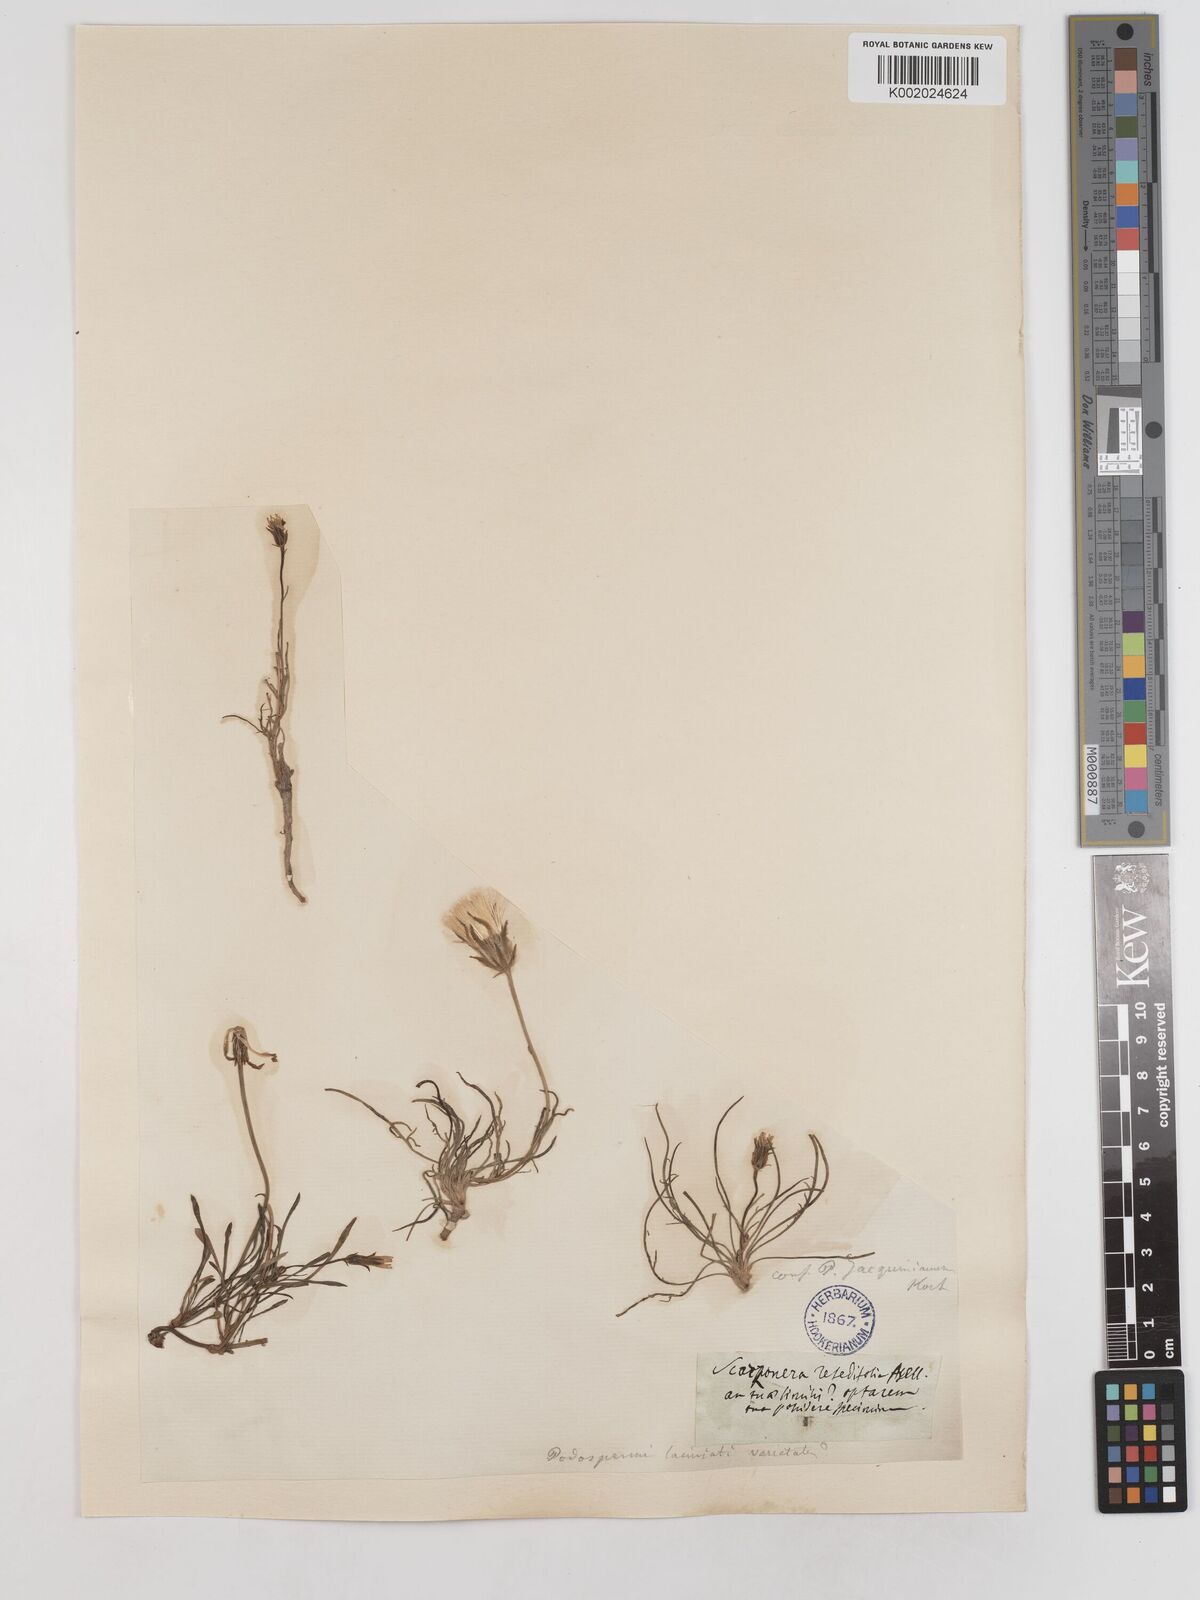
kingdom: Plantae
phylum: Tracheophyta
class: Magnoliopsida
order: Asterales
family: Asteraceae
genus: Scorzonera
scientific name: Scorzonera laciniata
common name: Cutleaf vipergrass
